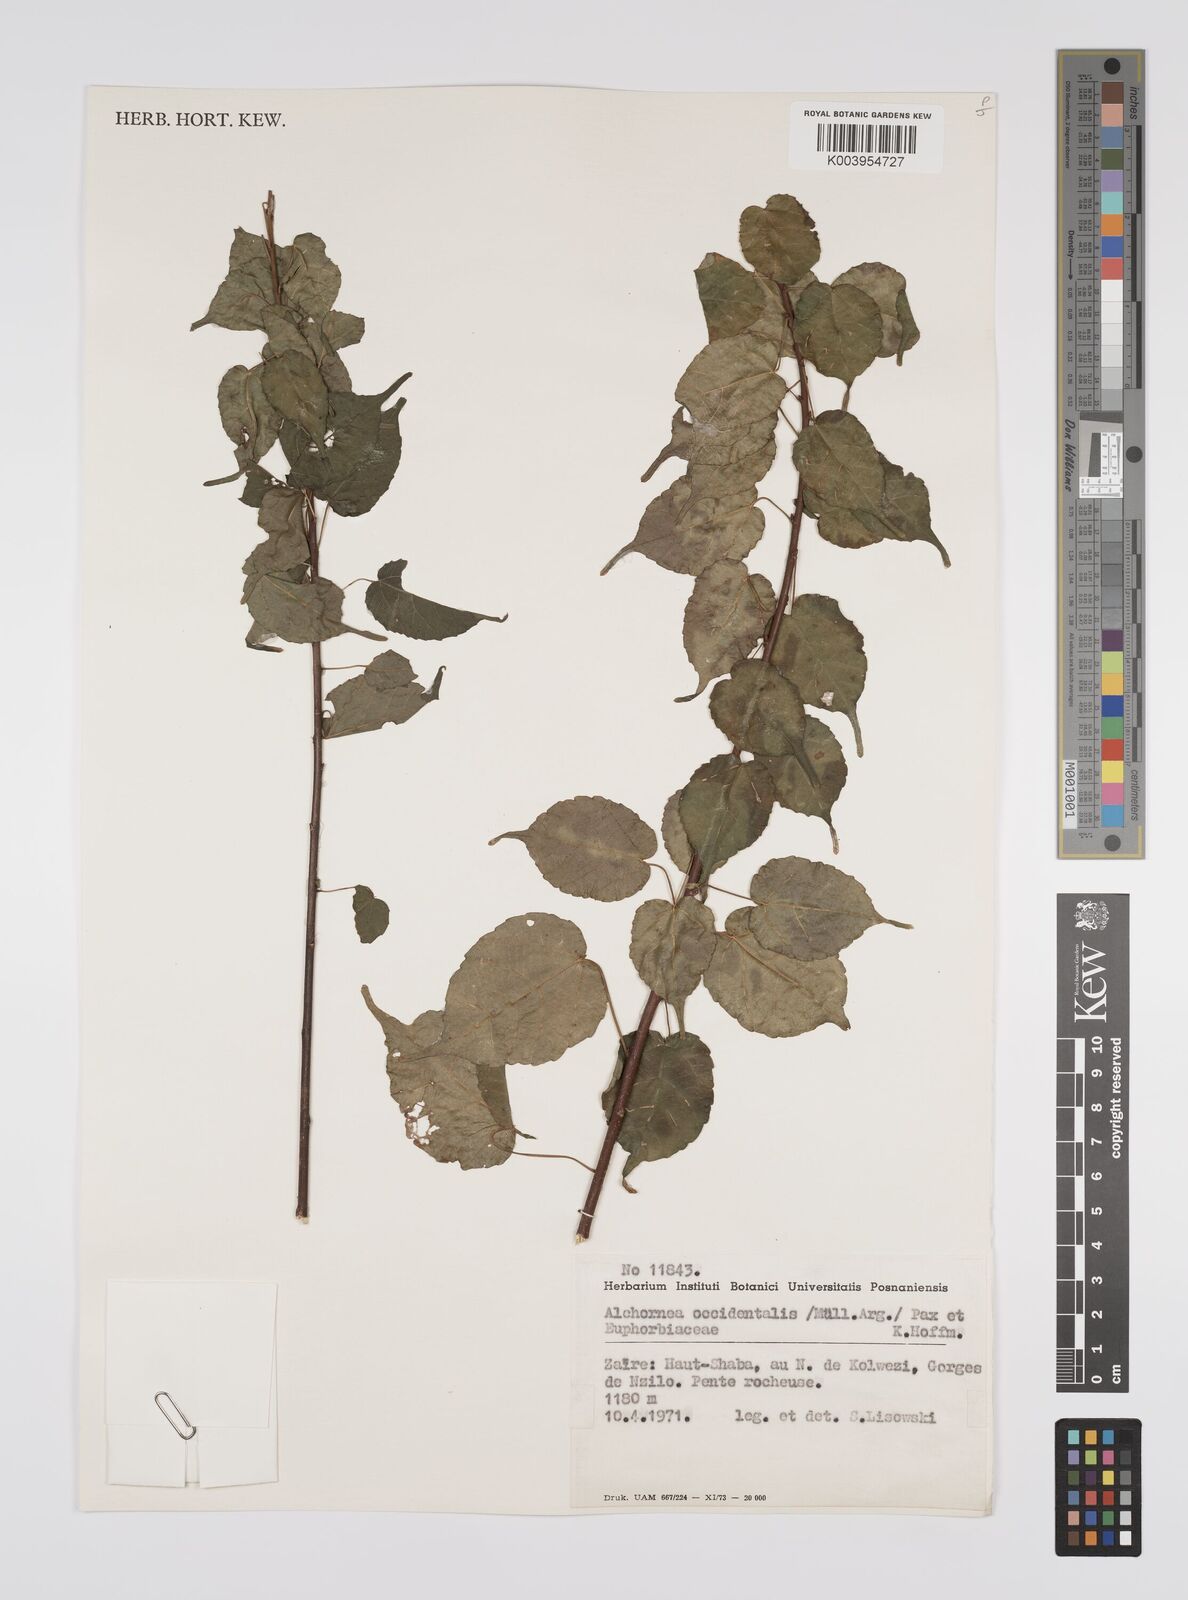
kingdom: Plantae
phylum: Tracheophyta
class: Magnoliopsida
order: Malpighiales
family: Euphorbiaceae
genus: Alchornea
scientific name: Alchornea occidentalis
